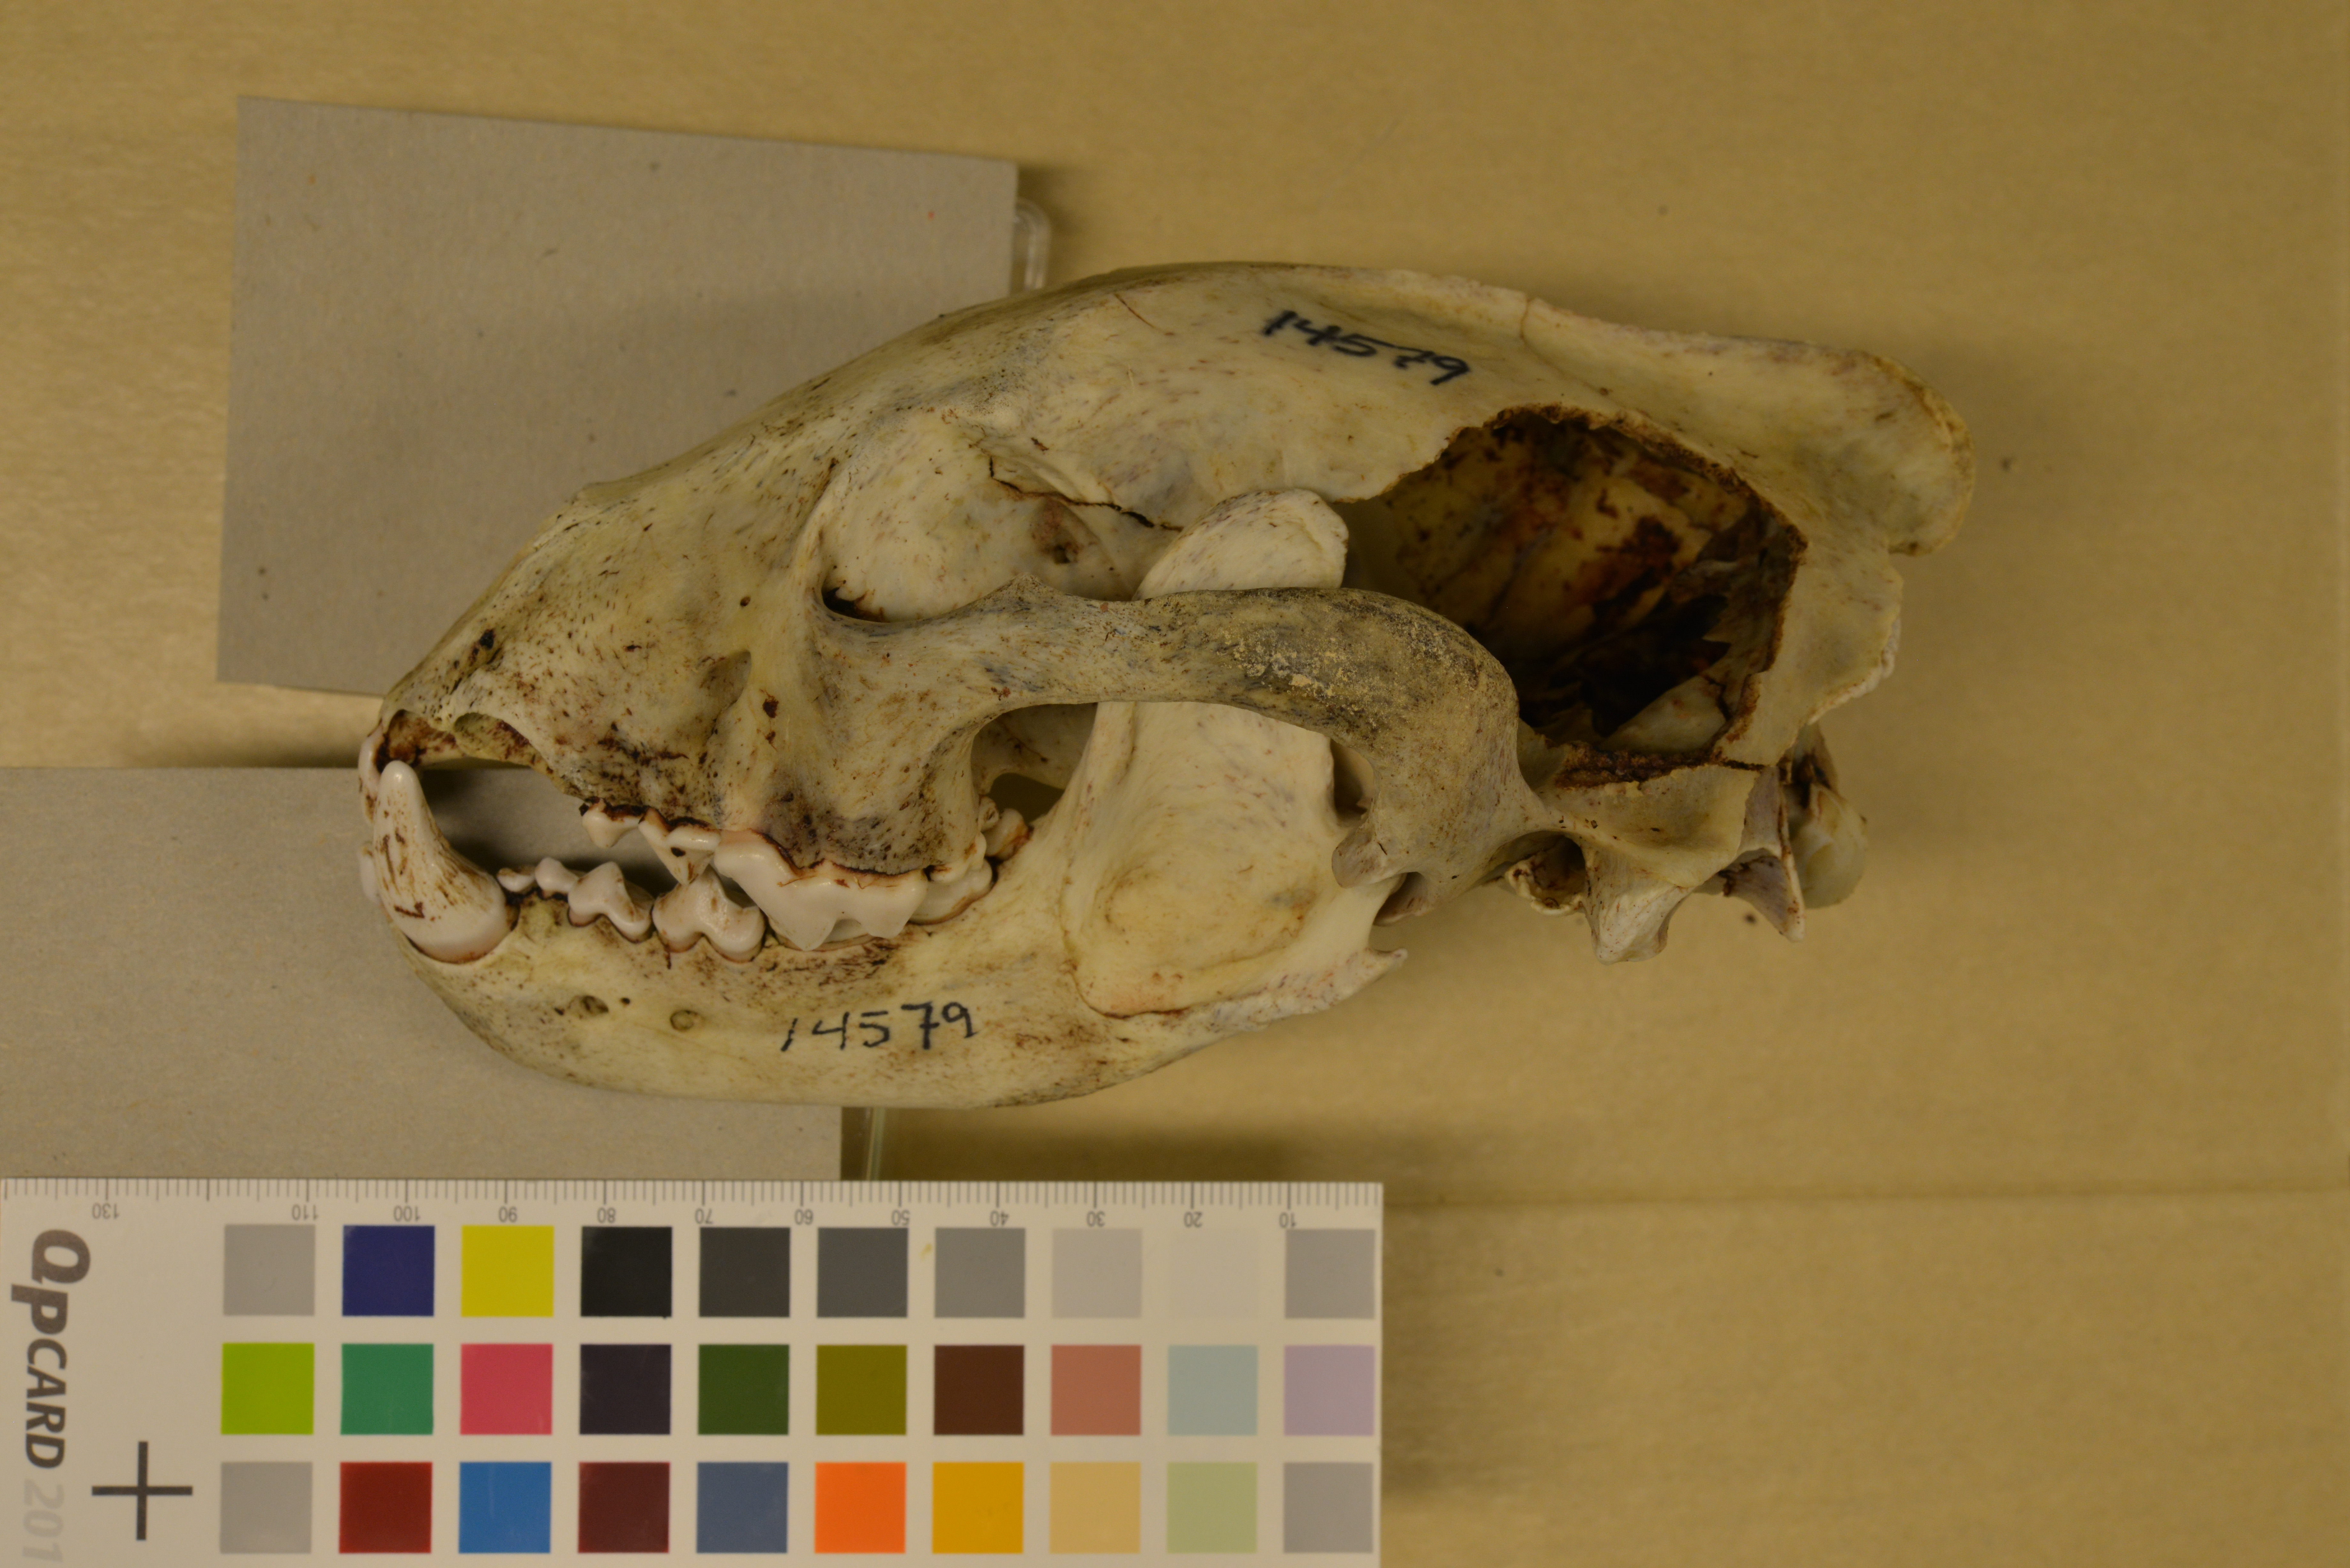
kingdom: Animalia
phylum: Chordata
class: Mammalia
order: Carnivora
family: Mustelidae
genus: Gulo
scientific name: Gulo gulo
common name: Wolverine
